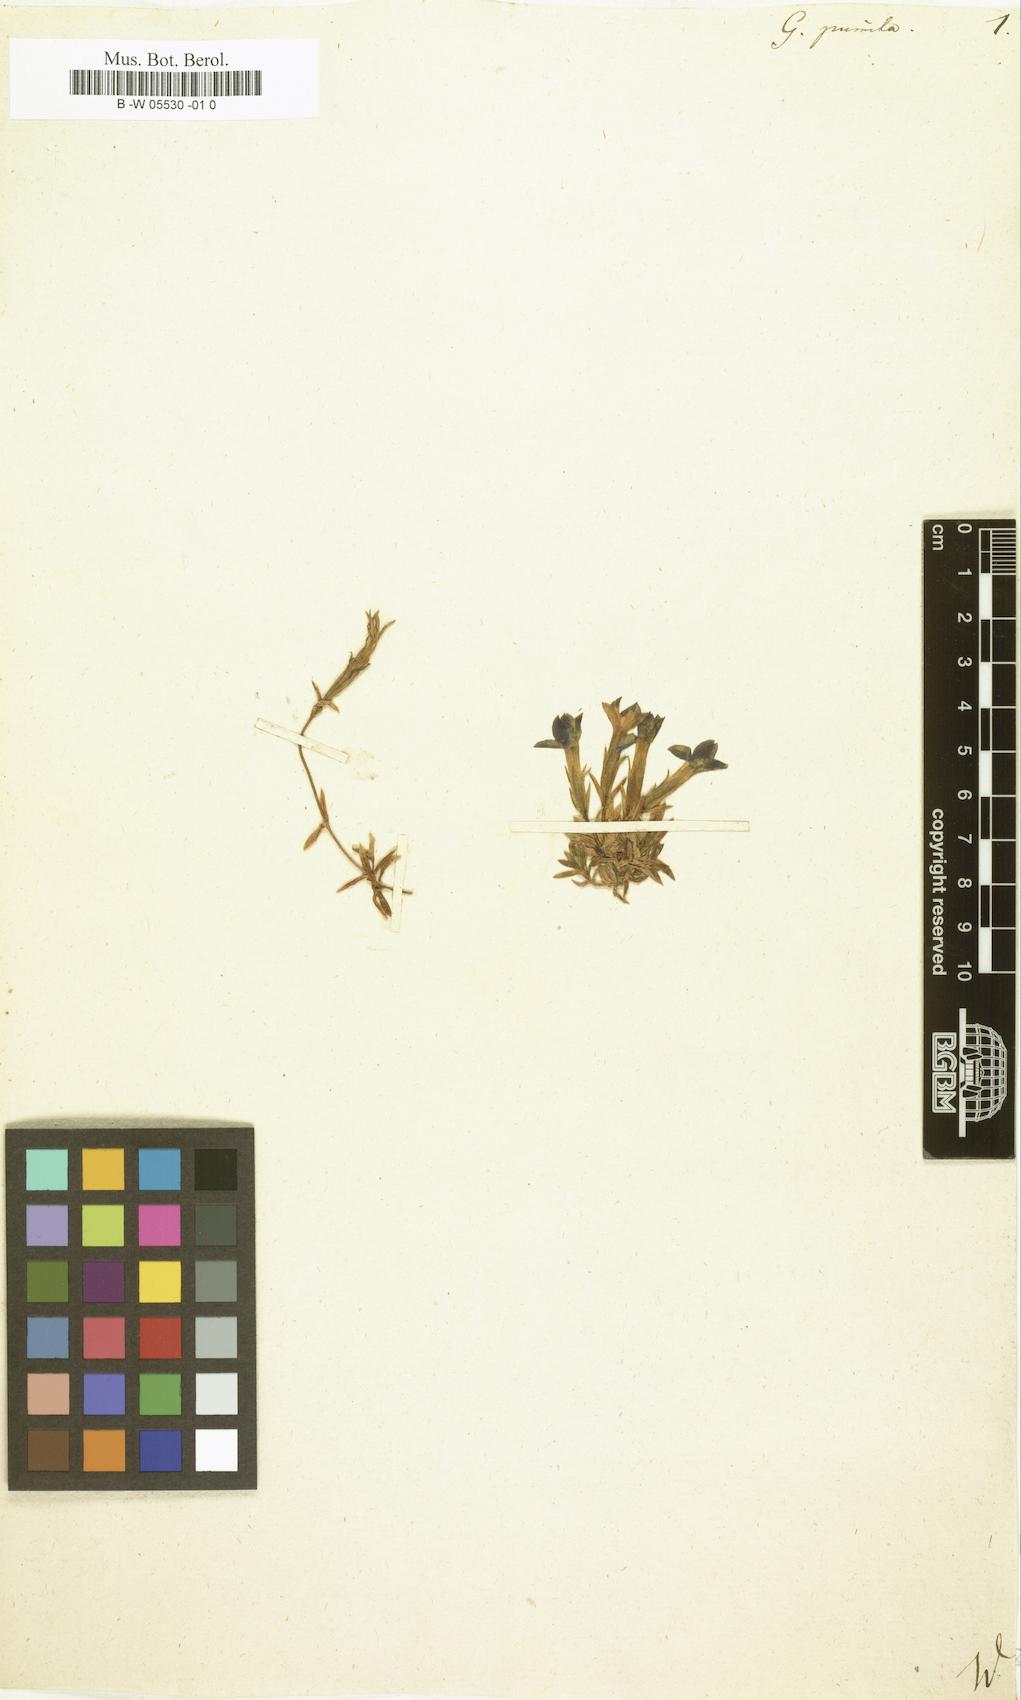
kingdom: Plantae
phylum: Tracheophyta
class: Magnoliopsida
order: Gentianales
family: Gentianaceae
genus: Gentiana
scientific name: Gentiana pumila
